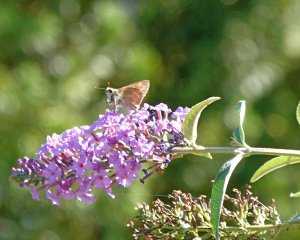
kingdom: Animalia
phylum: Arthropoda
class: Insecta
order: Lepidoptera
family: Hesperiidae
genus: Ochlodes
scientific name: Ochlodes sylvanoides
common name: Woodland Skipper
